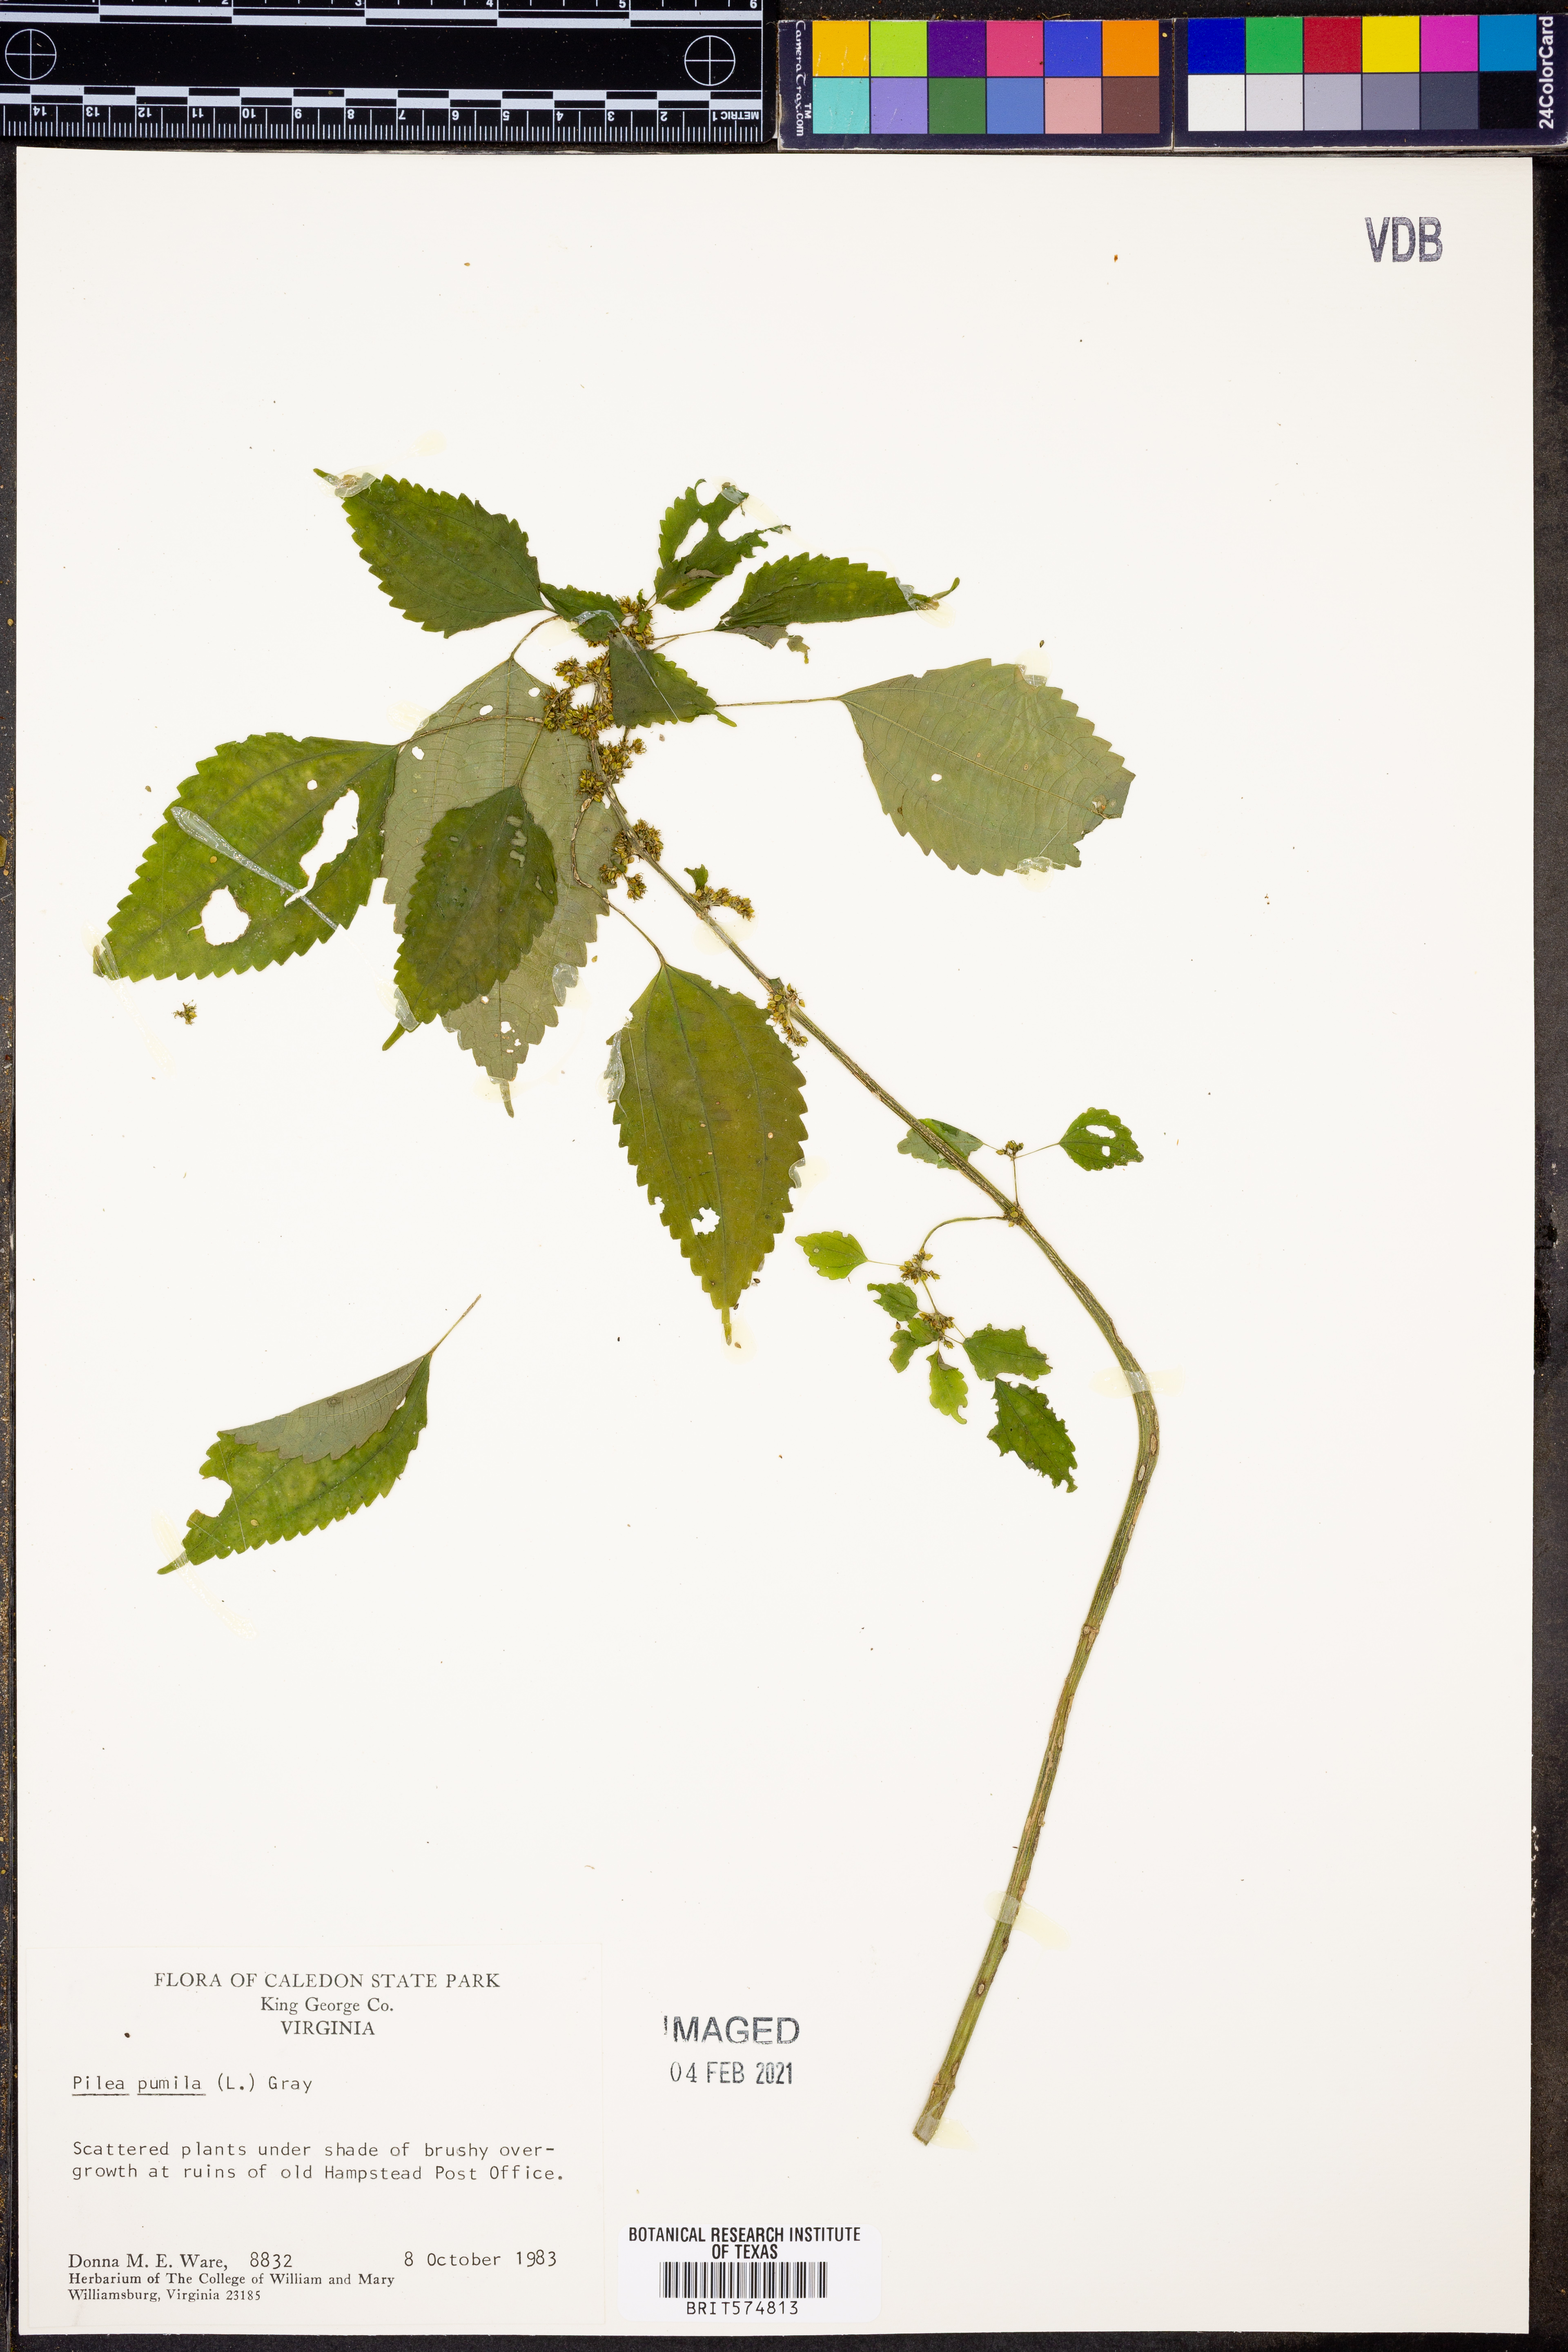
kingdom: Plantae
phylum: Tracheophyta
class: Magnoliopsida
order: Rosales
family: Urticaceae
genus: Pilea
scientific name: Pilea pumila
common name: Clearweed
